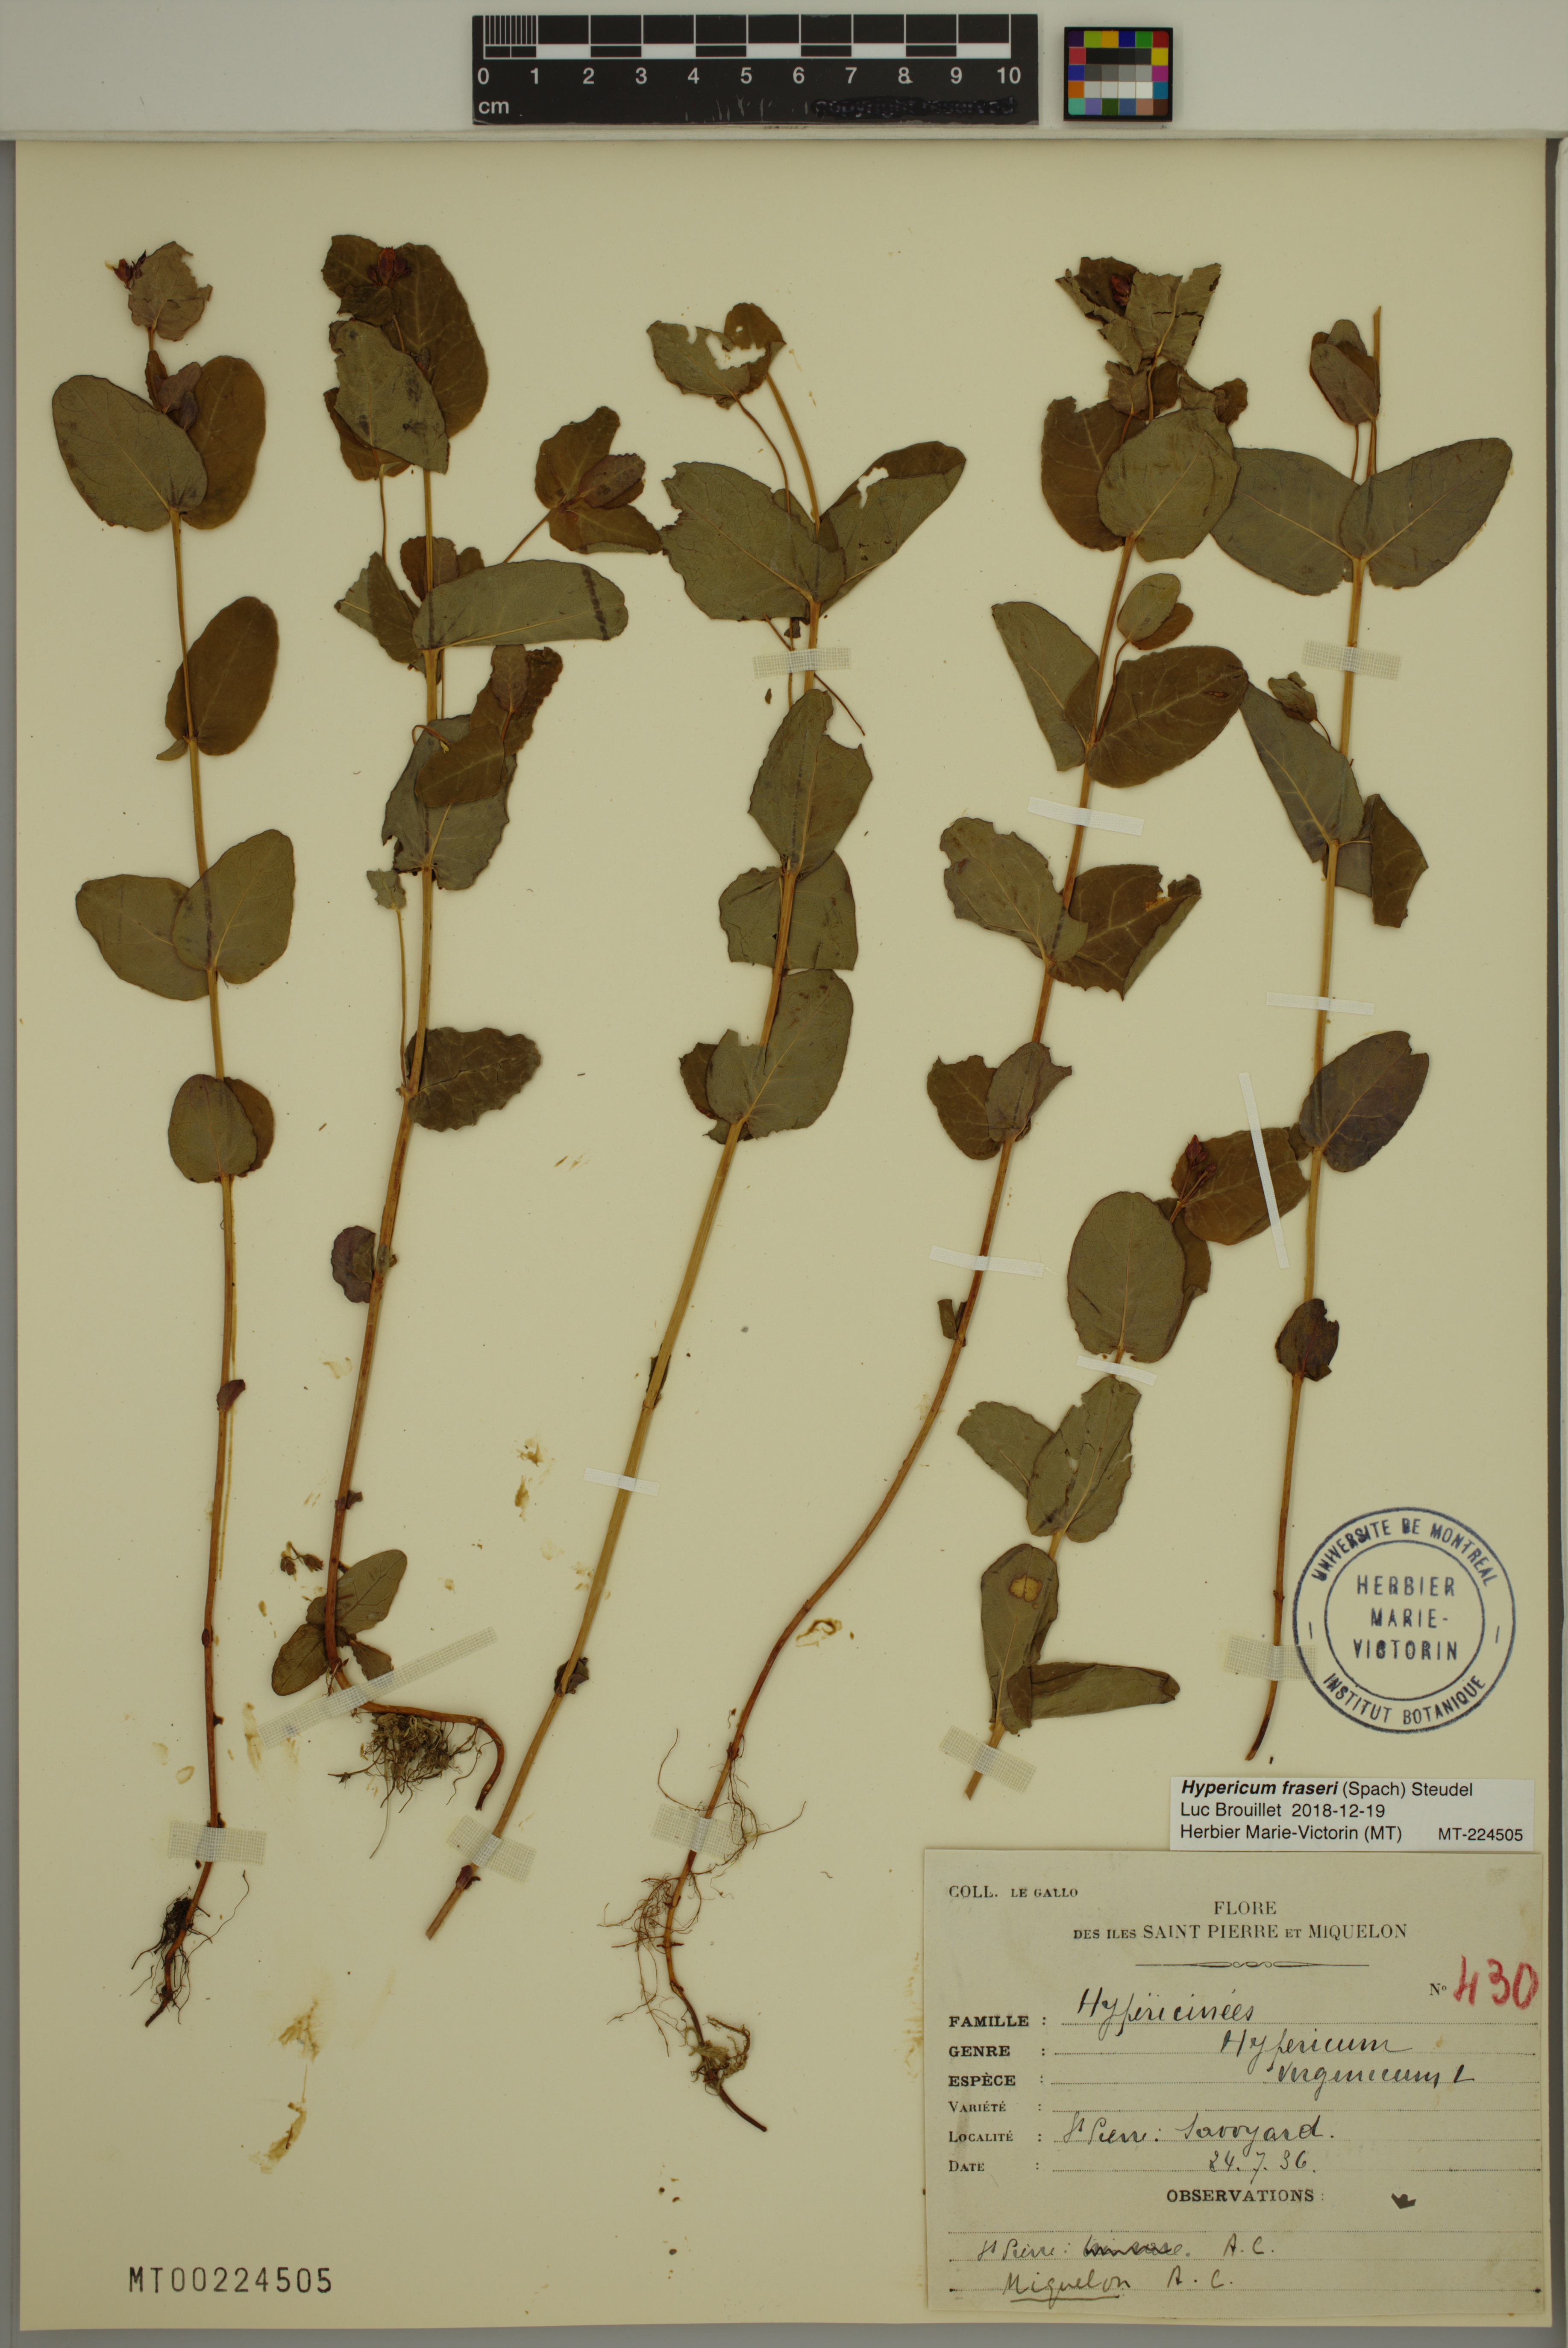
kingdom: Plantae
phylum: Tracheophyta
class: Magnoliopsida
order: Malpighiales
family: Hypericaceae
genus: Triadenum
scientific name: Triadenum fraseri
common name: Fraser's marsh st. johnswort
